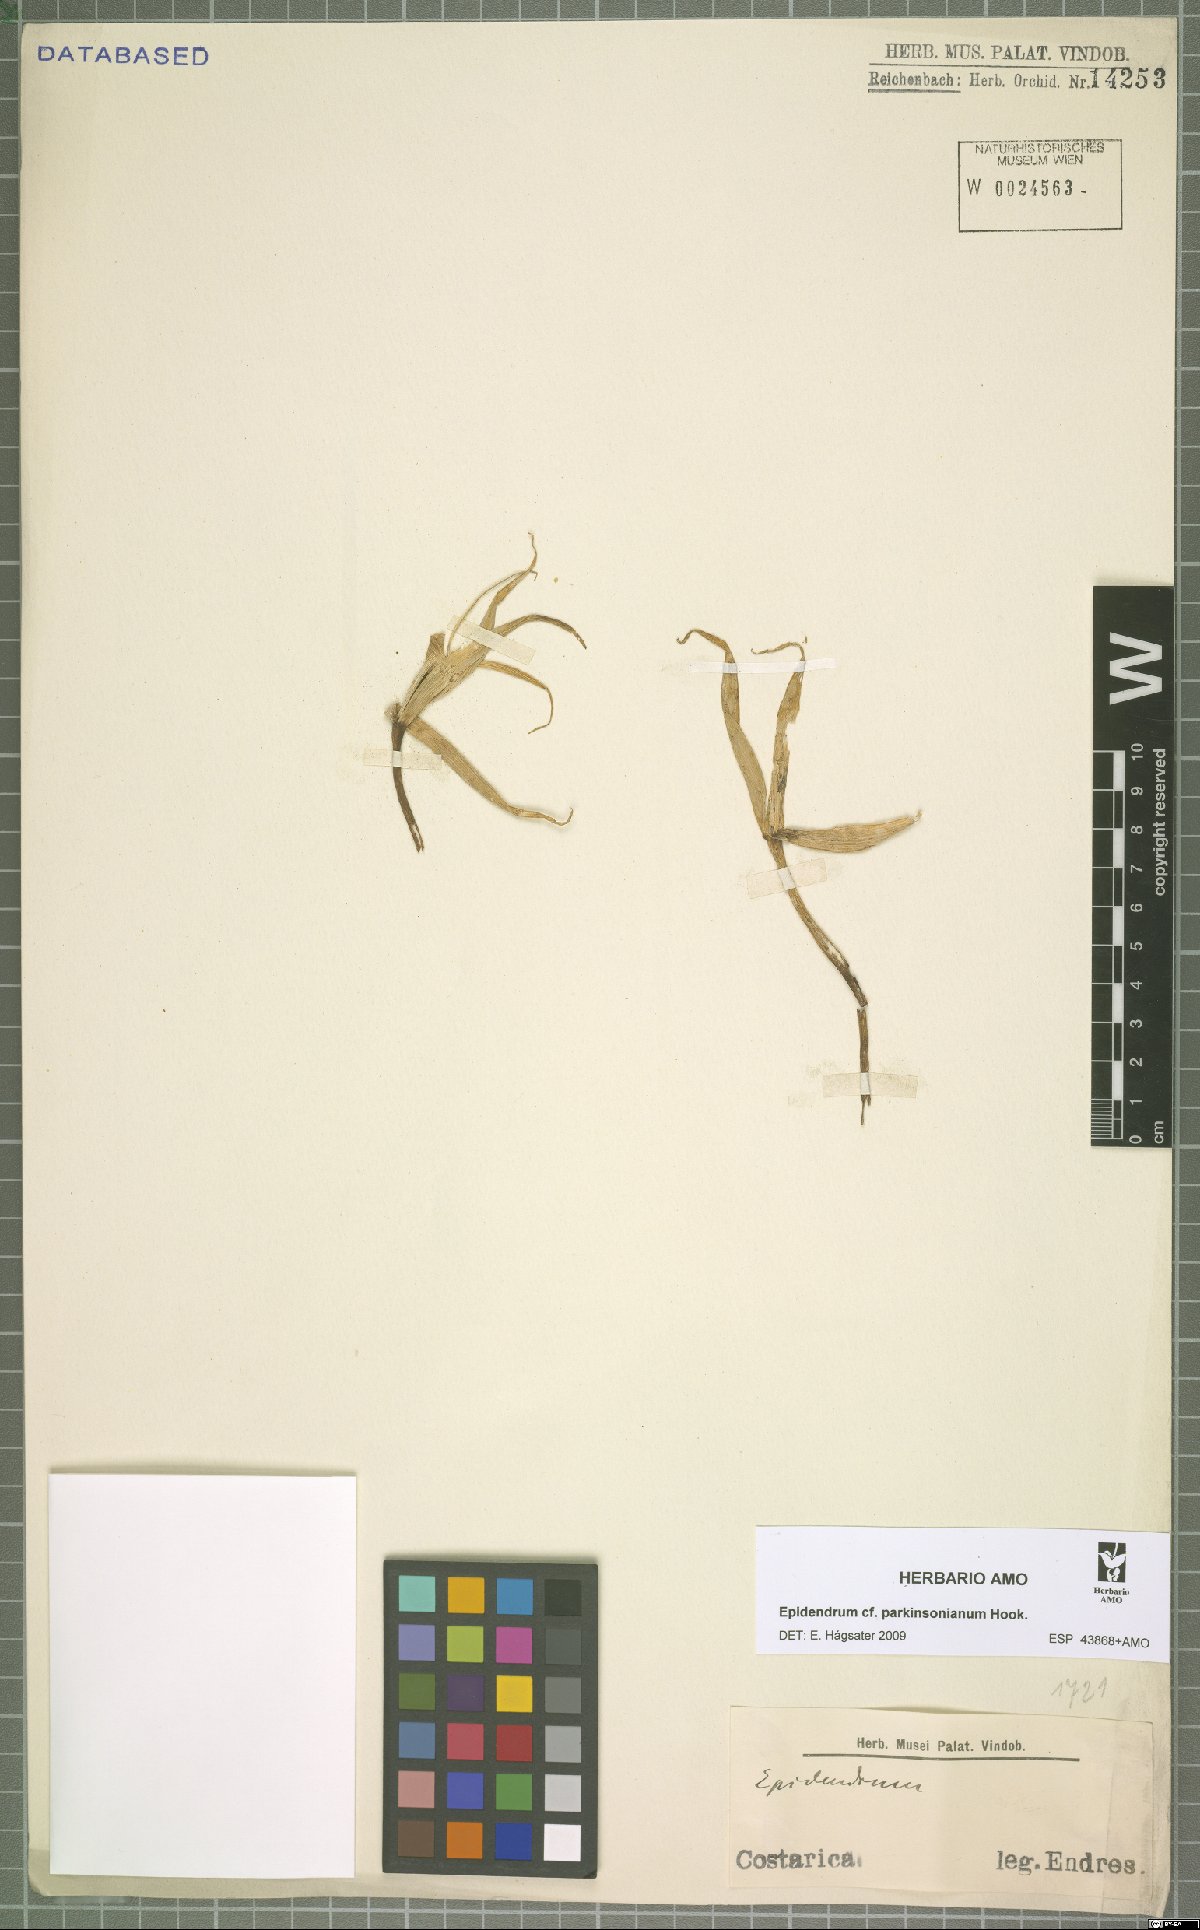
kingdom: Plantae
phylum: Tracheophyta
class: Liliopsida
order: Asparagales
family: Orchidaceae
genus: Epidendrum
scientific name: Epidendrum parkinsonianum
